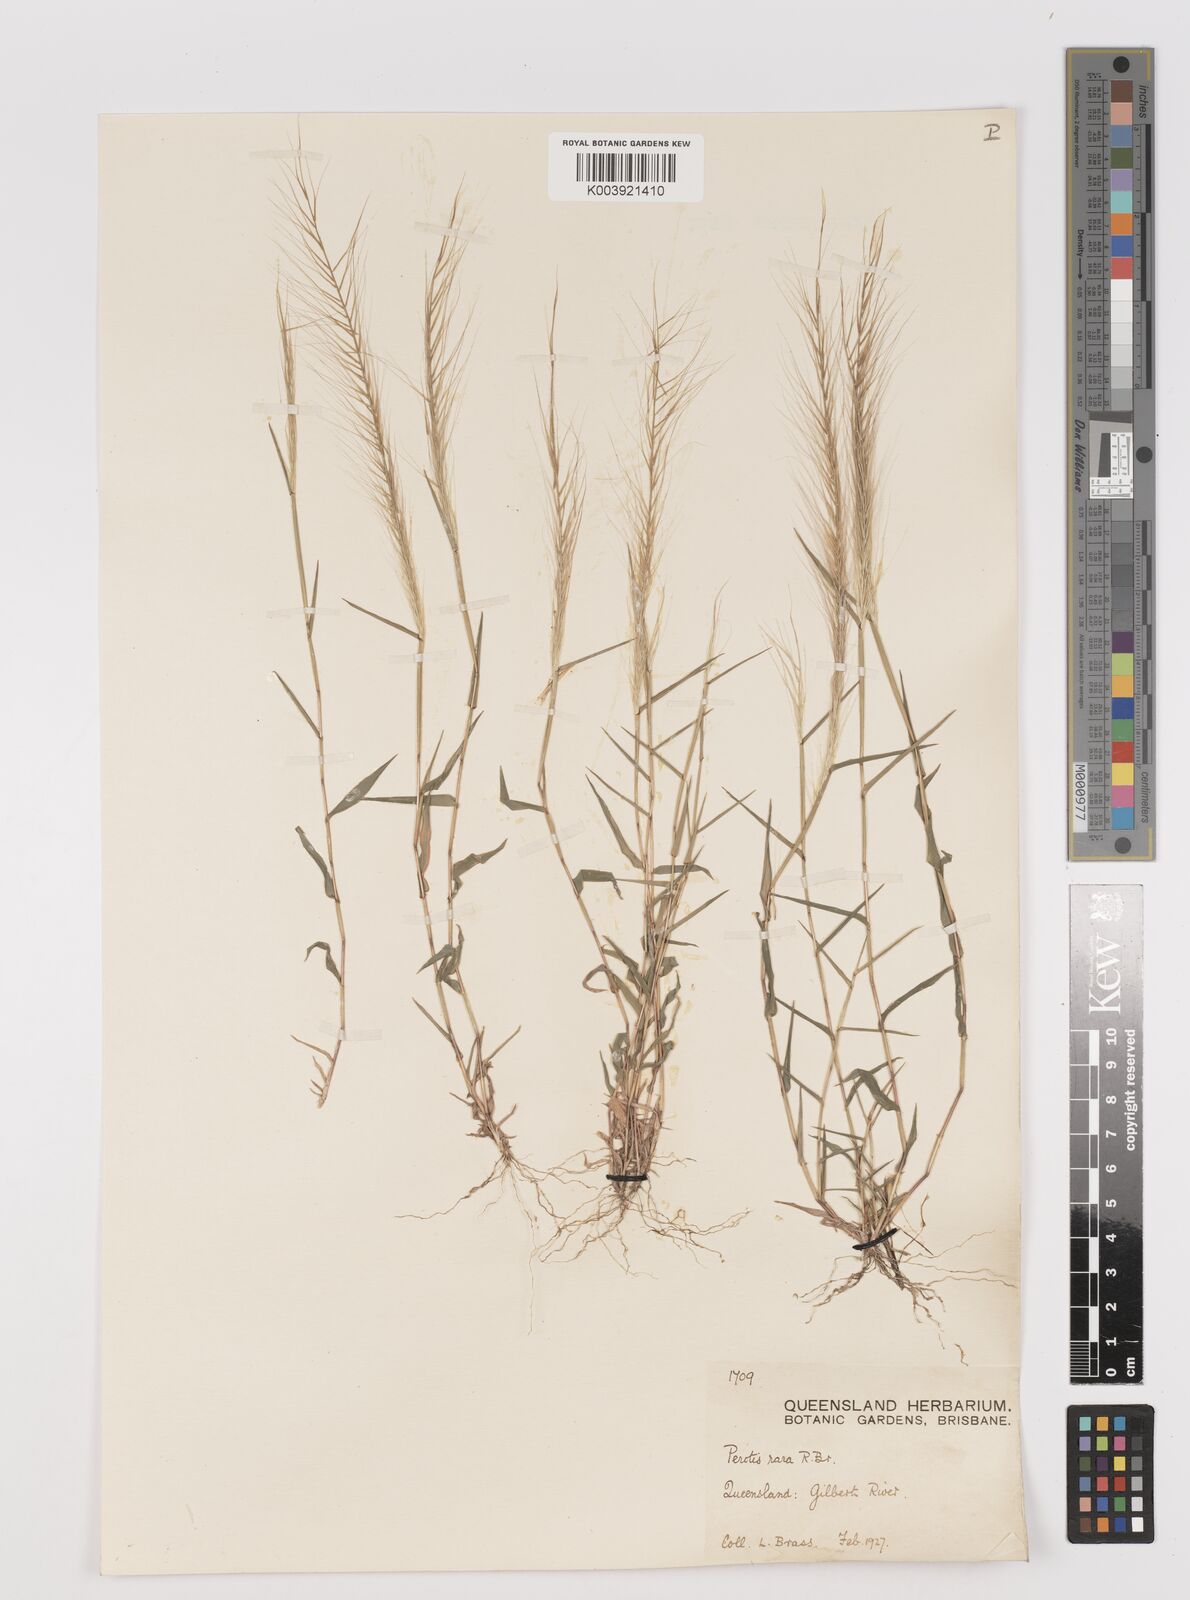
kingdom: Plantae
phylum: Tracheophyta
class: Liliopsida
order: Poales
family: Poaceae
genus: Perotis
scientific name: Perotis rara
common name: Comet grass
